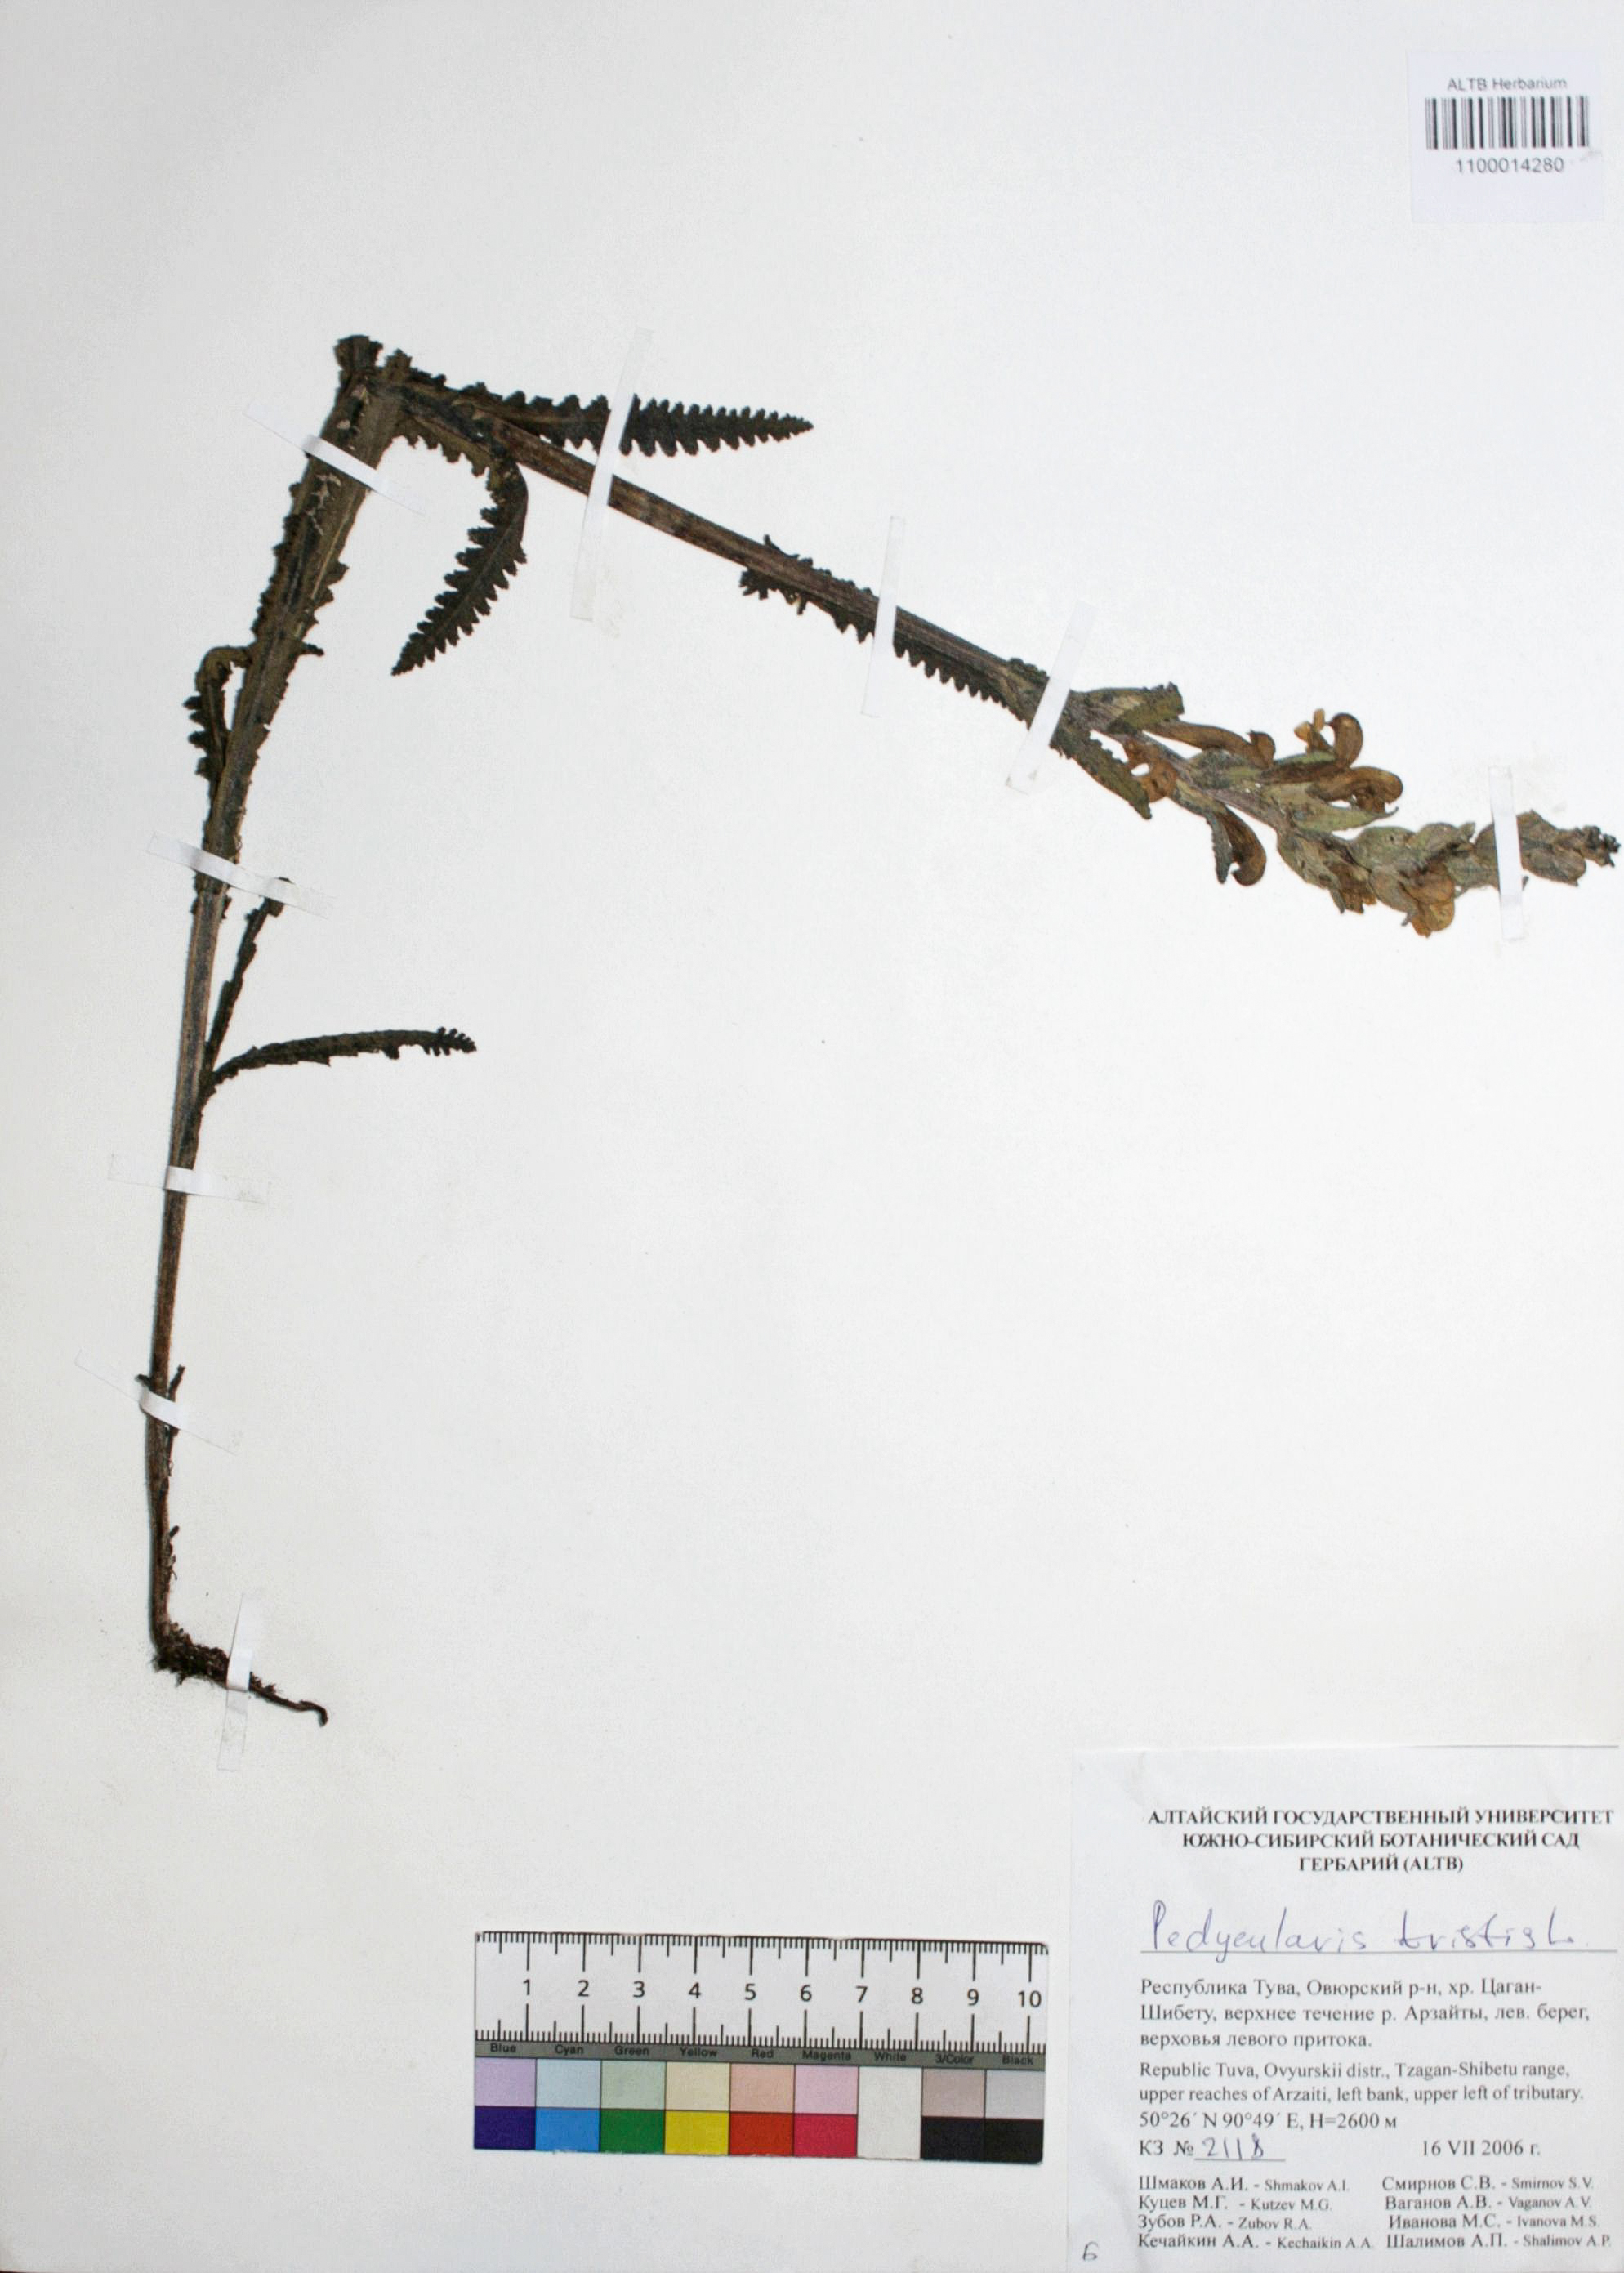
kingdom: Plantae
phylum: Tracheophyta
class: Magnoliopsida
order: Lamiales
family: Orobanchaceae
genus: Pedicularis
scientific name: Pedicularis tristis
